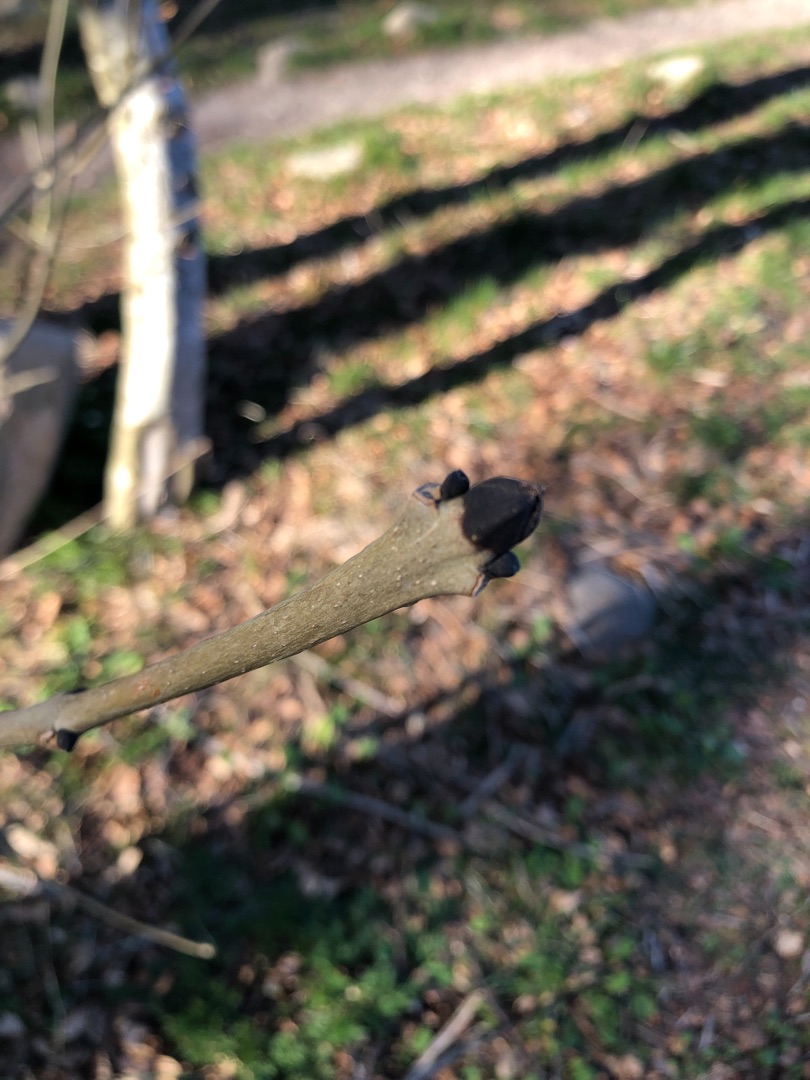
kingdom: Plantae
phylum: Tracheophyta
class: Magnoliopsida
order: Lamiales
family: Oleaceae
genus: Fraxinus
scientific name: Fraxinus excelsior
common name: Ask
